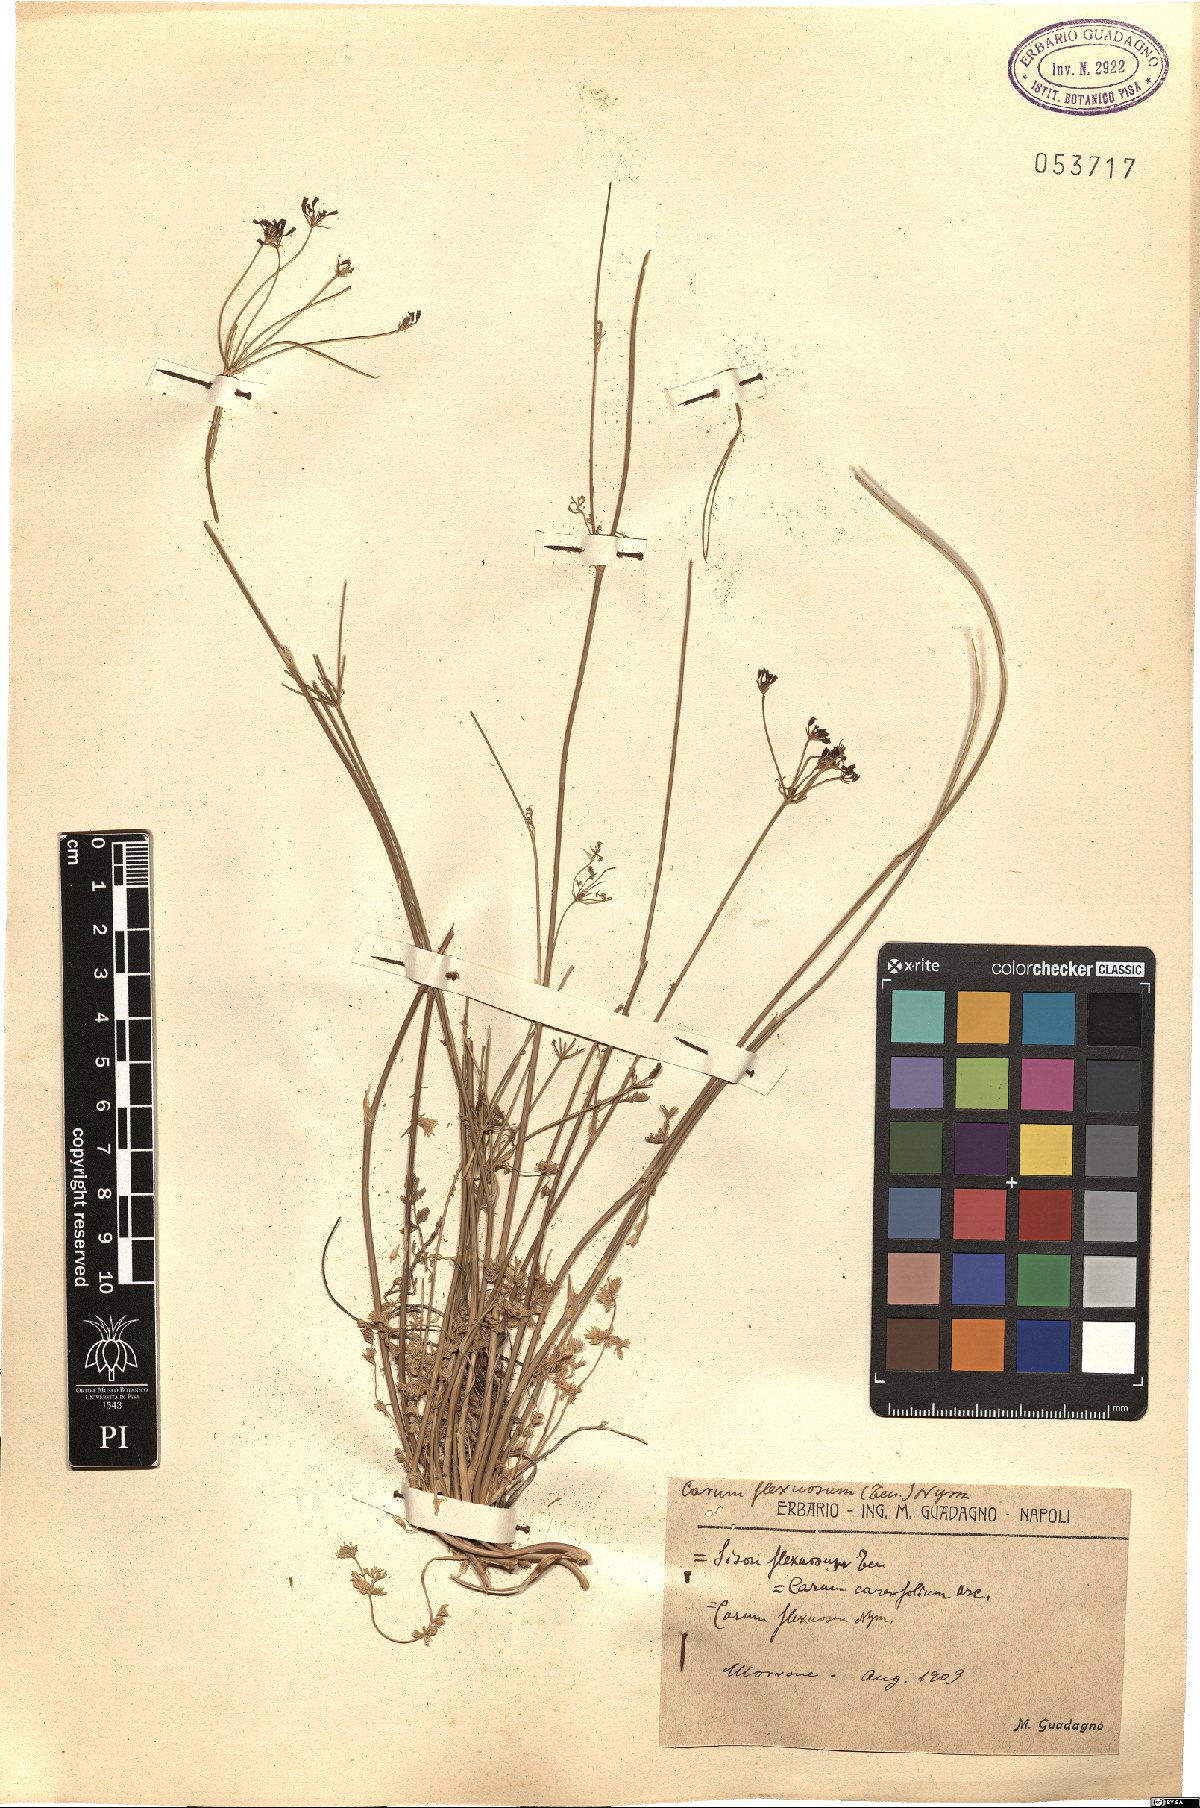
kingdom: Plantae
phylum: Tracheophyta
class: Magnoliopsida
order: Apiales
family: Apiaceae
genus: Selinum
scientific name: Selinum carvifolia
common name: Cambridge milk-parsley
